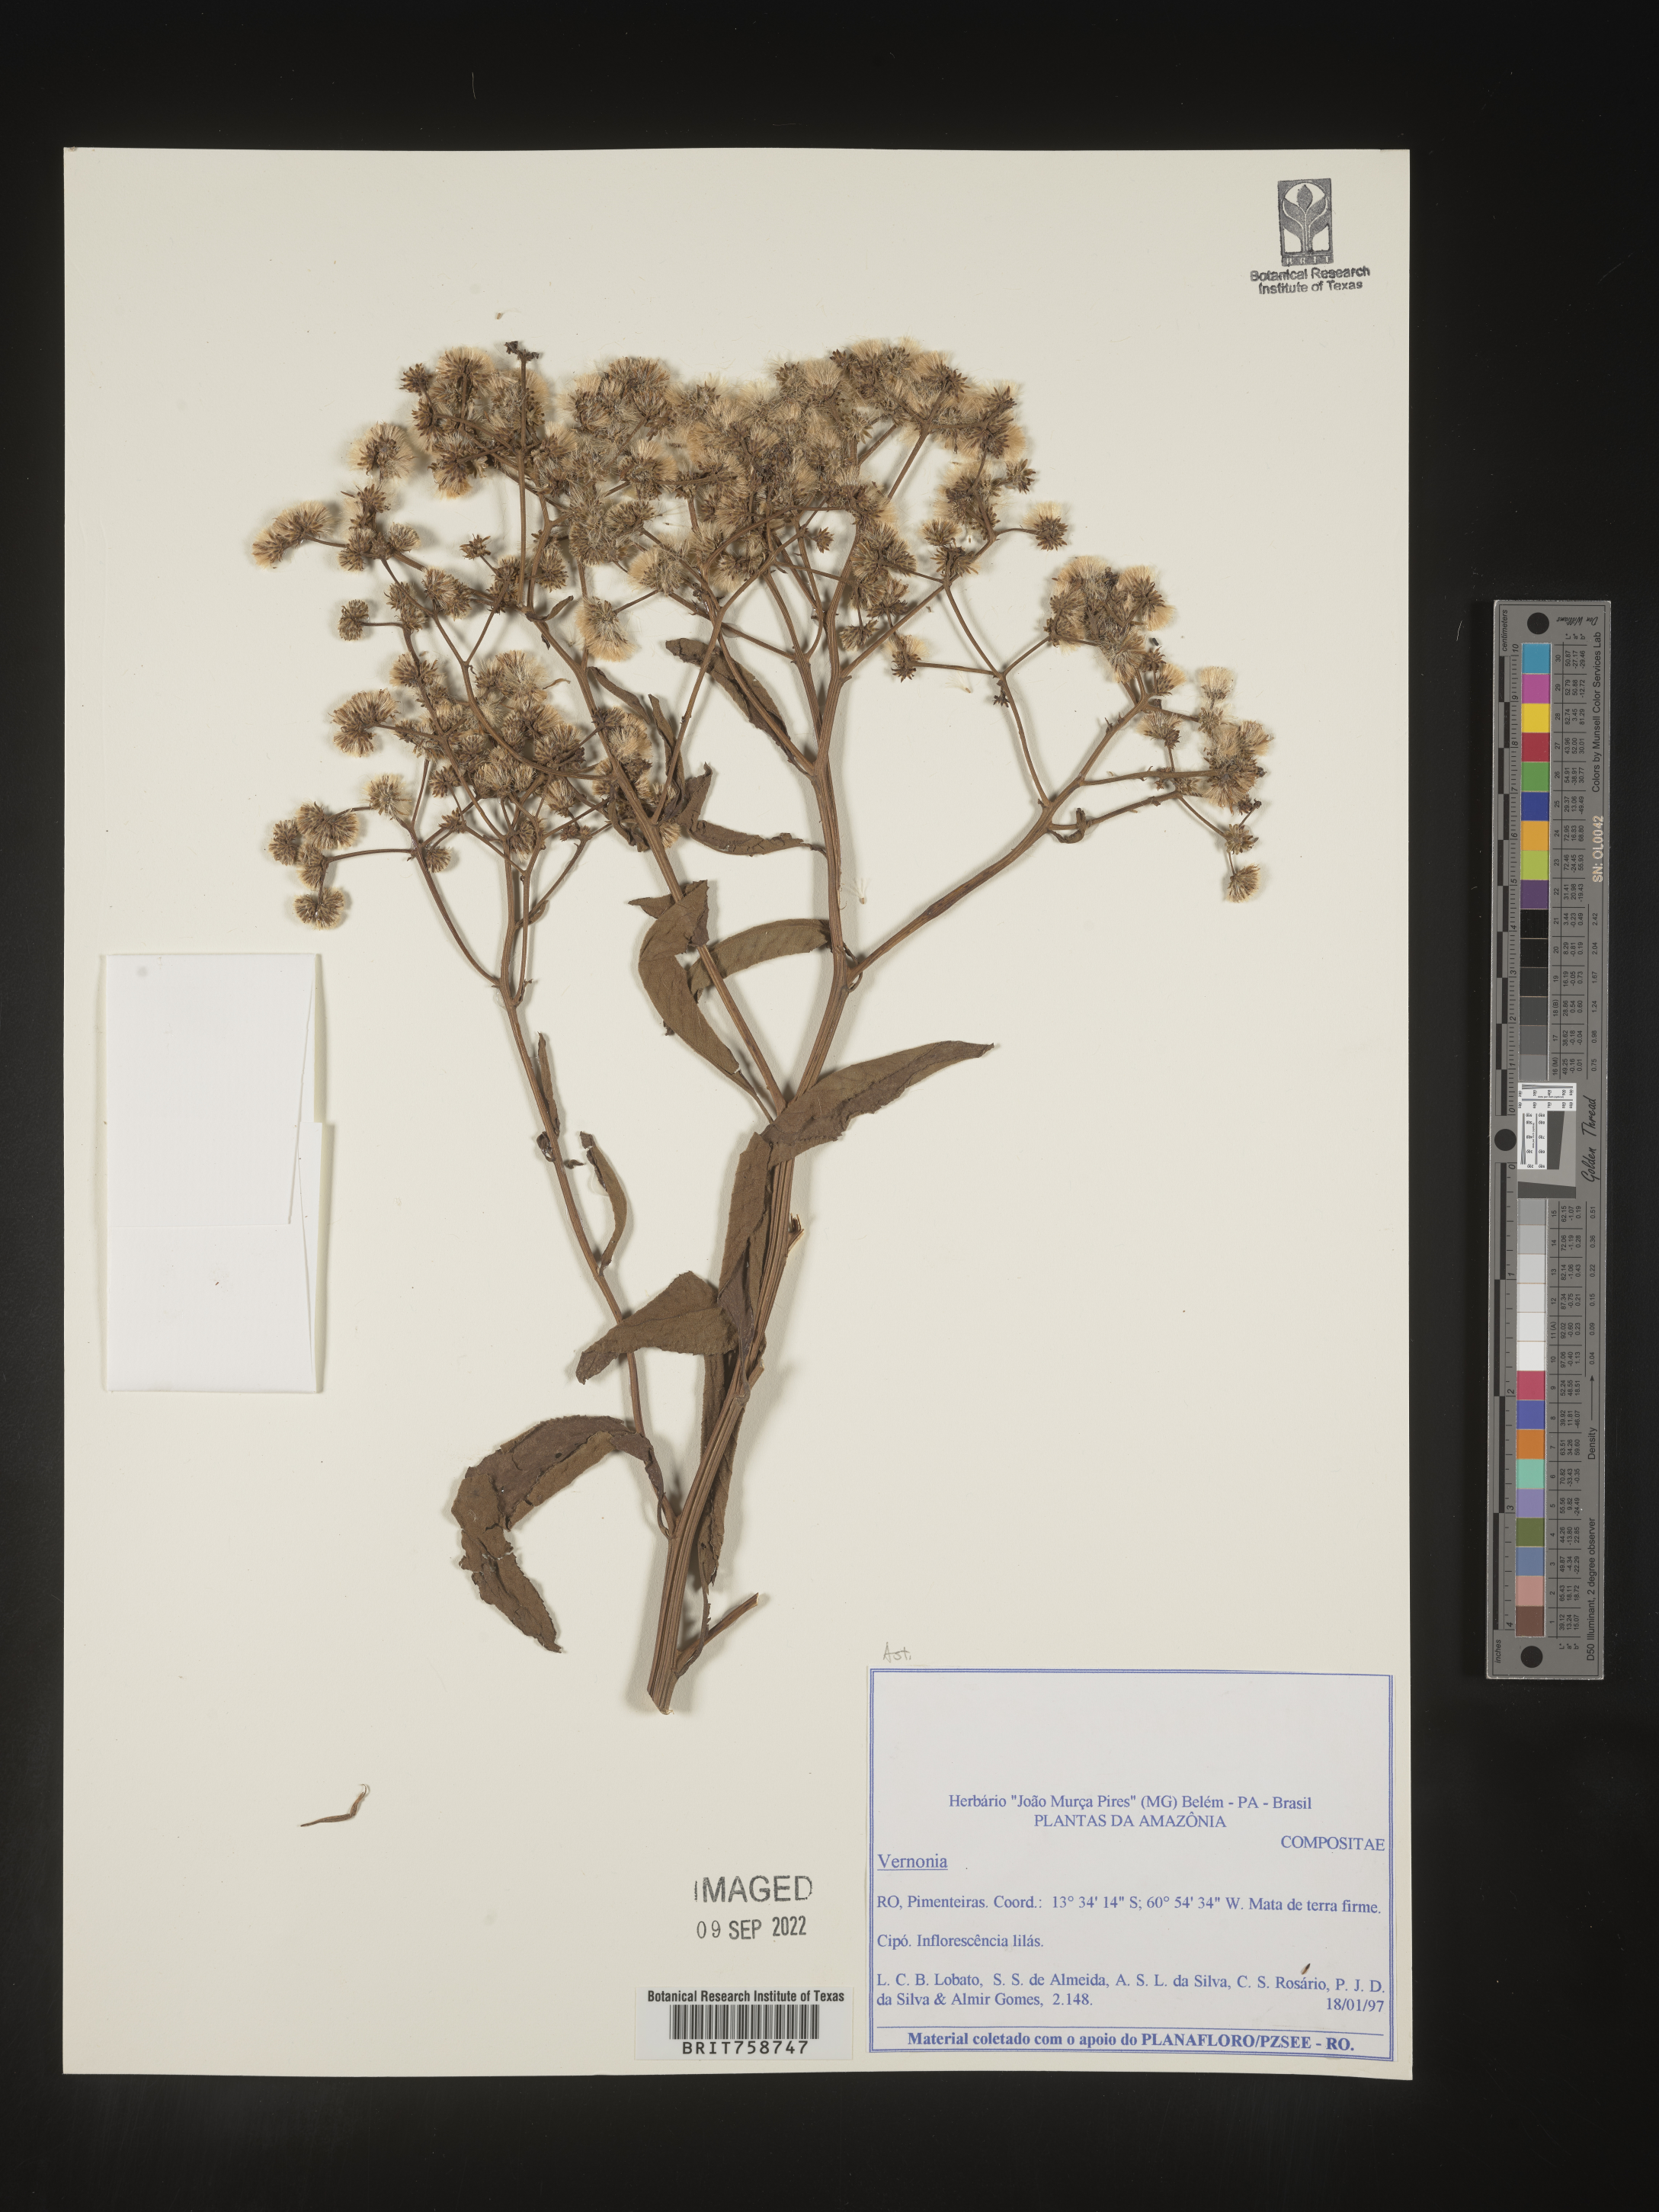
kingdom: Plantae
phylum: Tracheophyta
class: Magnoliopsida
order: Asterales
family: Asteraceae
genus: Vernonia
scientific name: Vernonia
